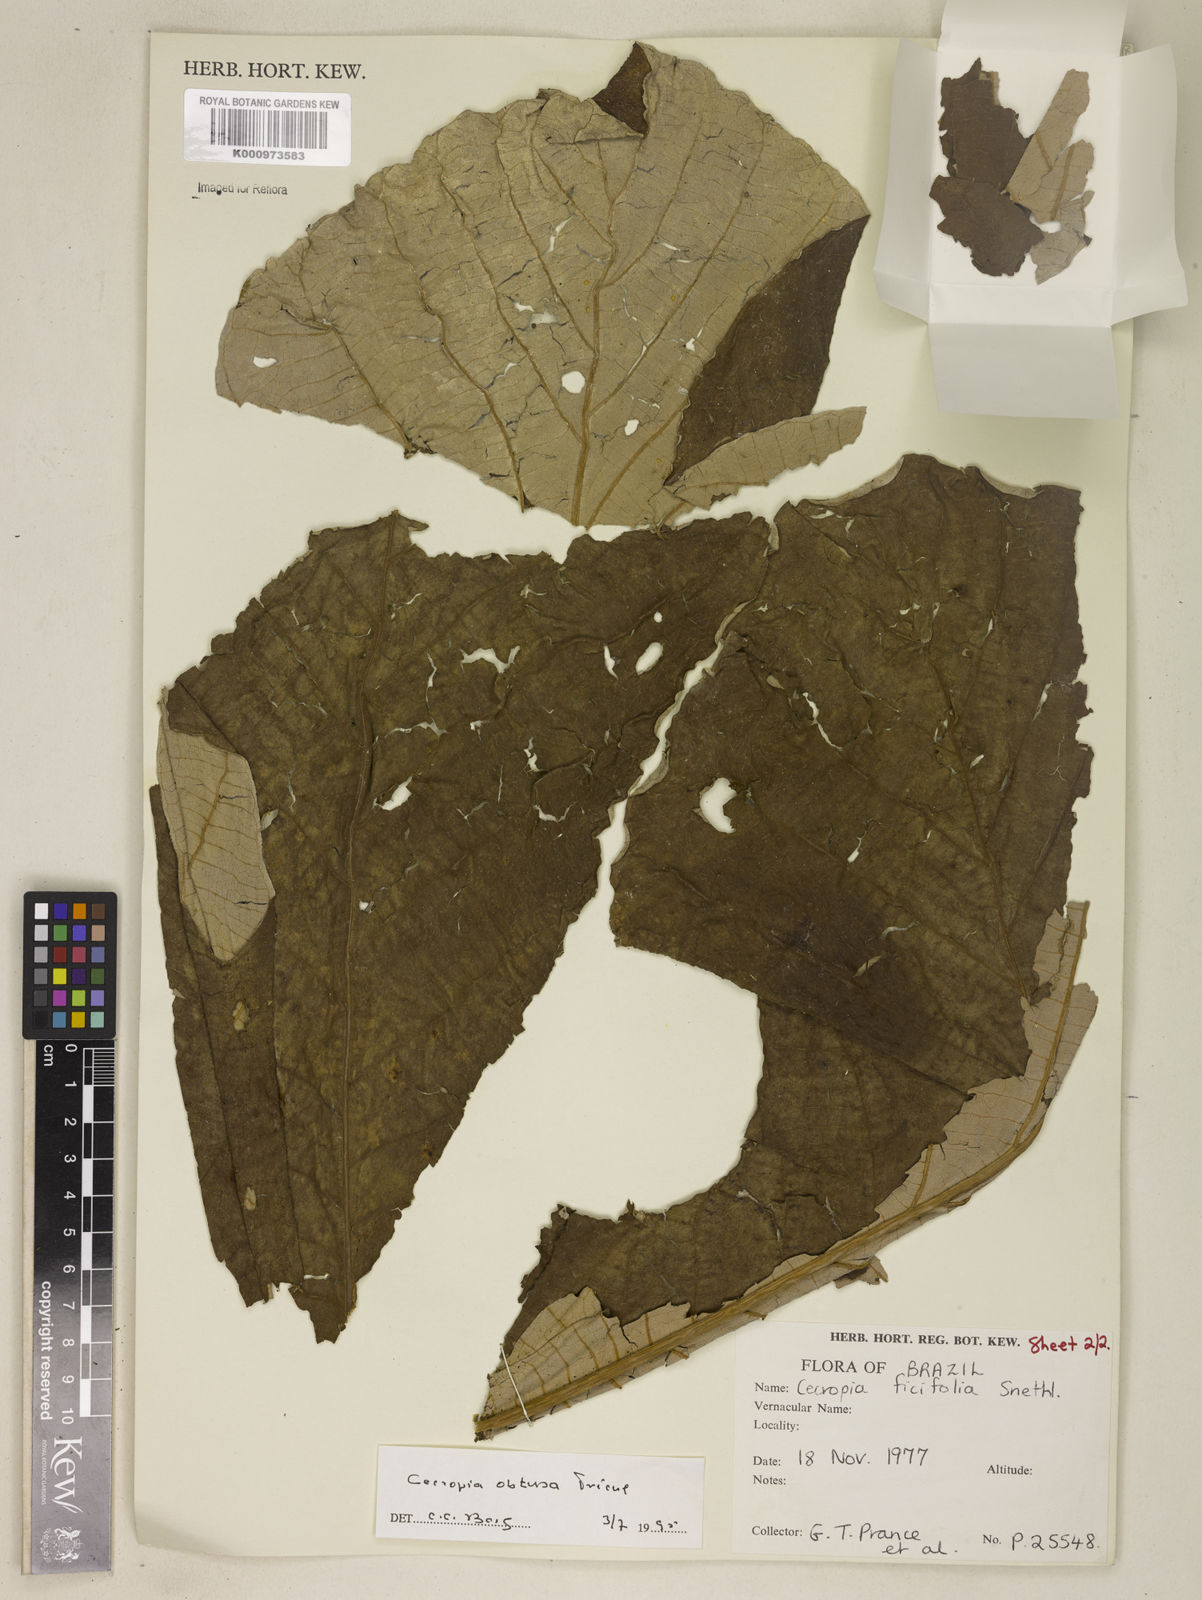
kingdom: Plantae
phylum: Tracheophyta
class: Magnoliopsida
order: Rosales
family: Urticaceae
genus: Cecropia
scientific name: Cecropia
